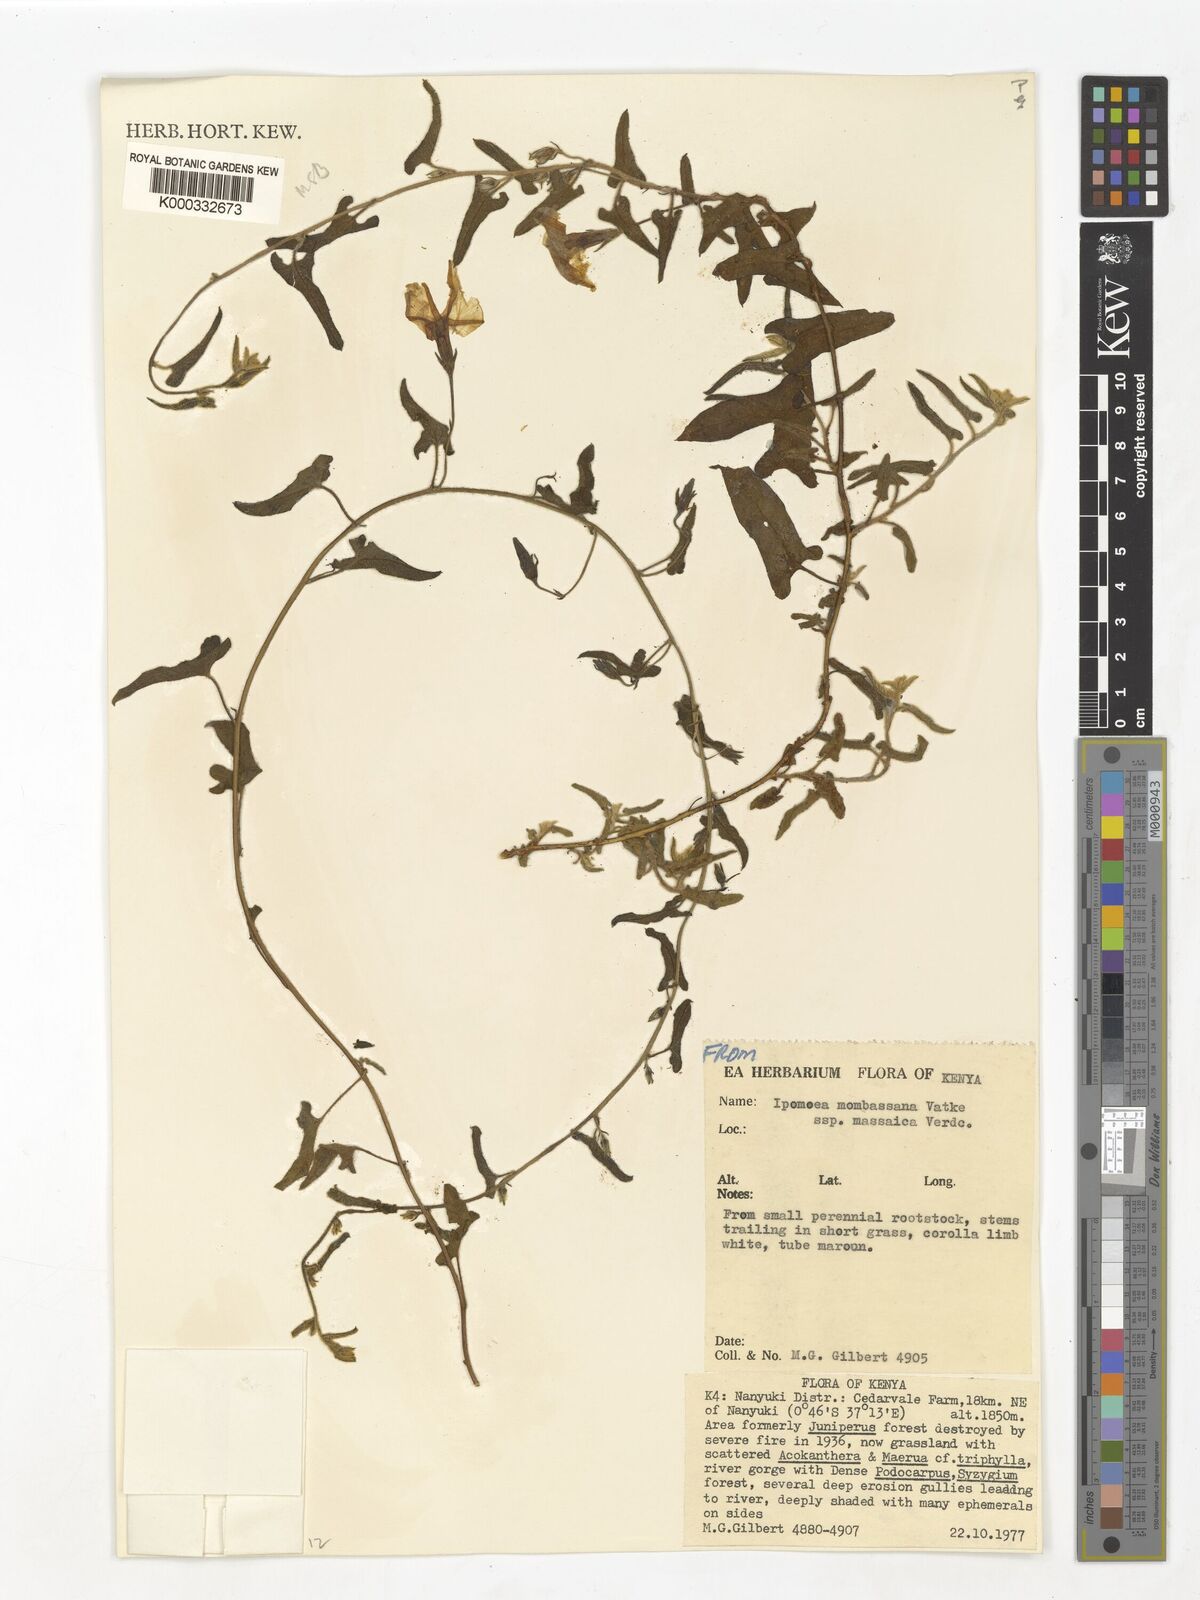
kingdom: Plantae
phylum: Tracheophyta
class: Magnoliopsida
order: Solanales
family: Convolvulaceae
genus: Ipomoea
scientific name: Ipomoea mombassana
